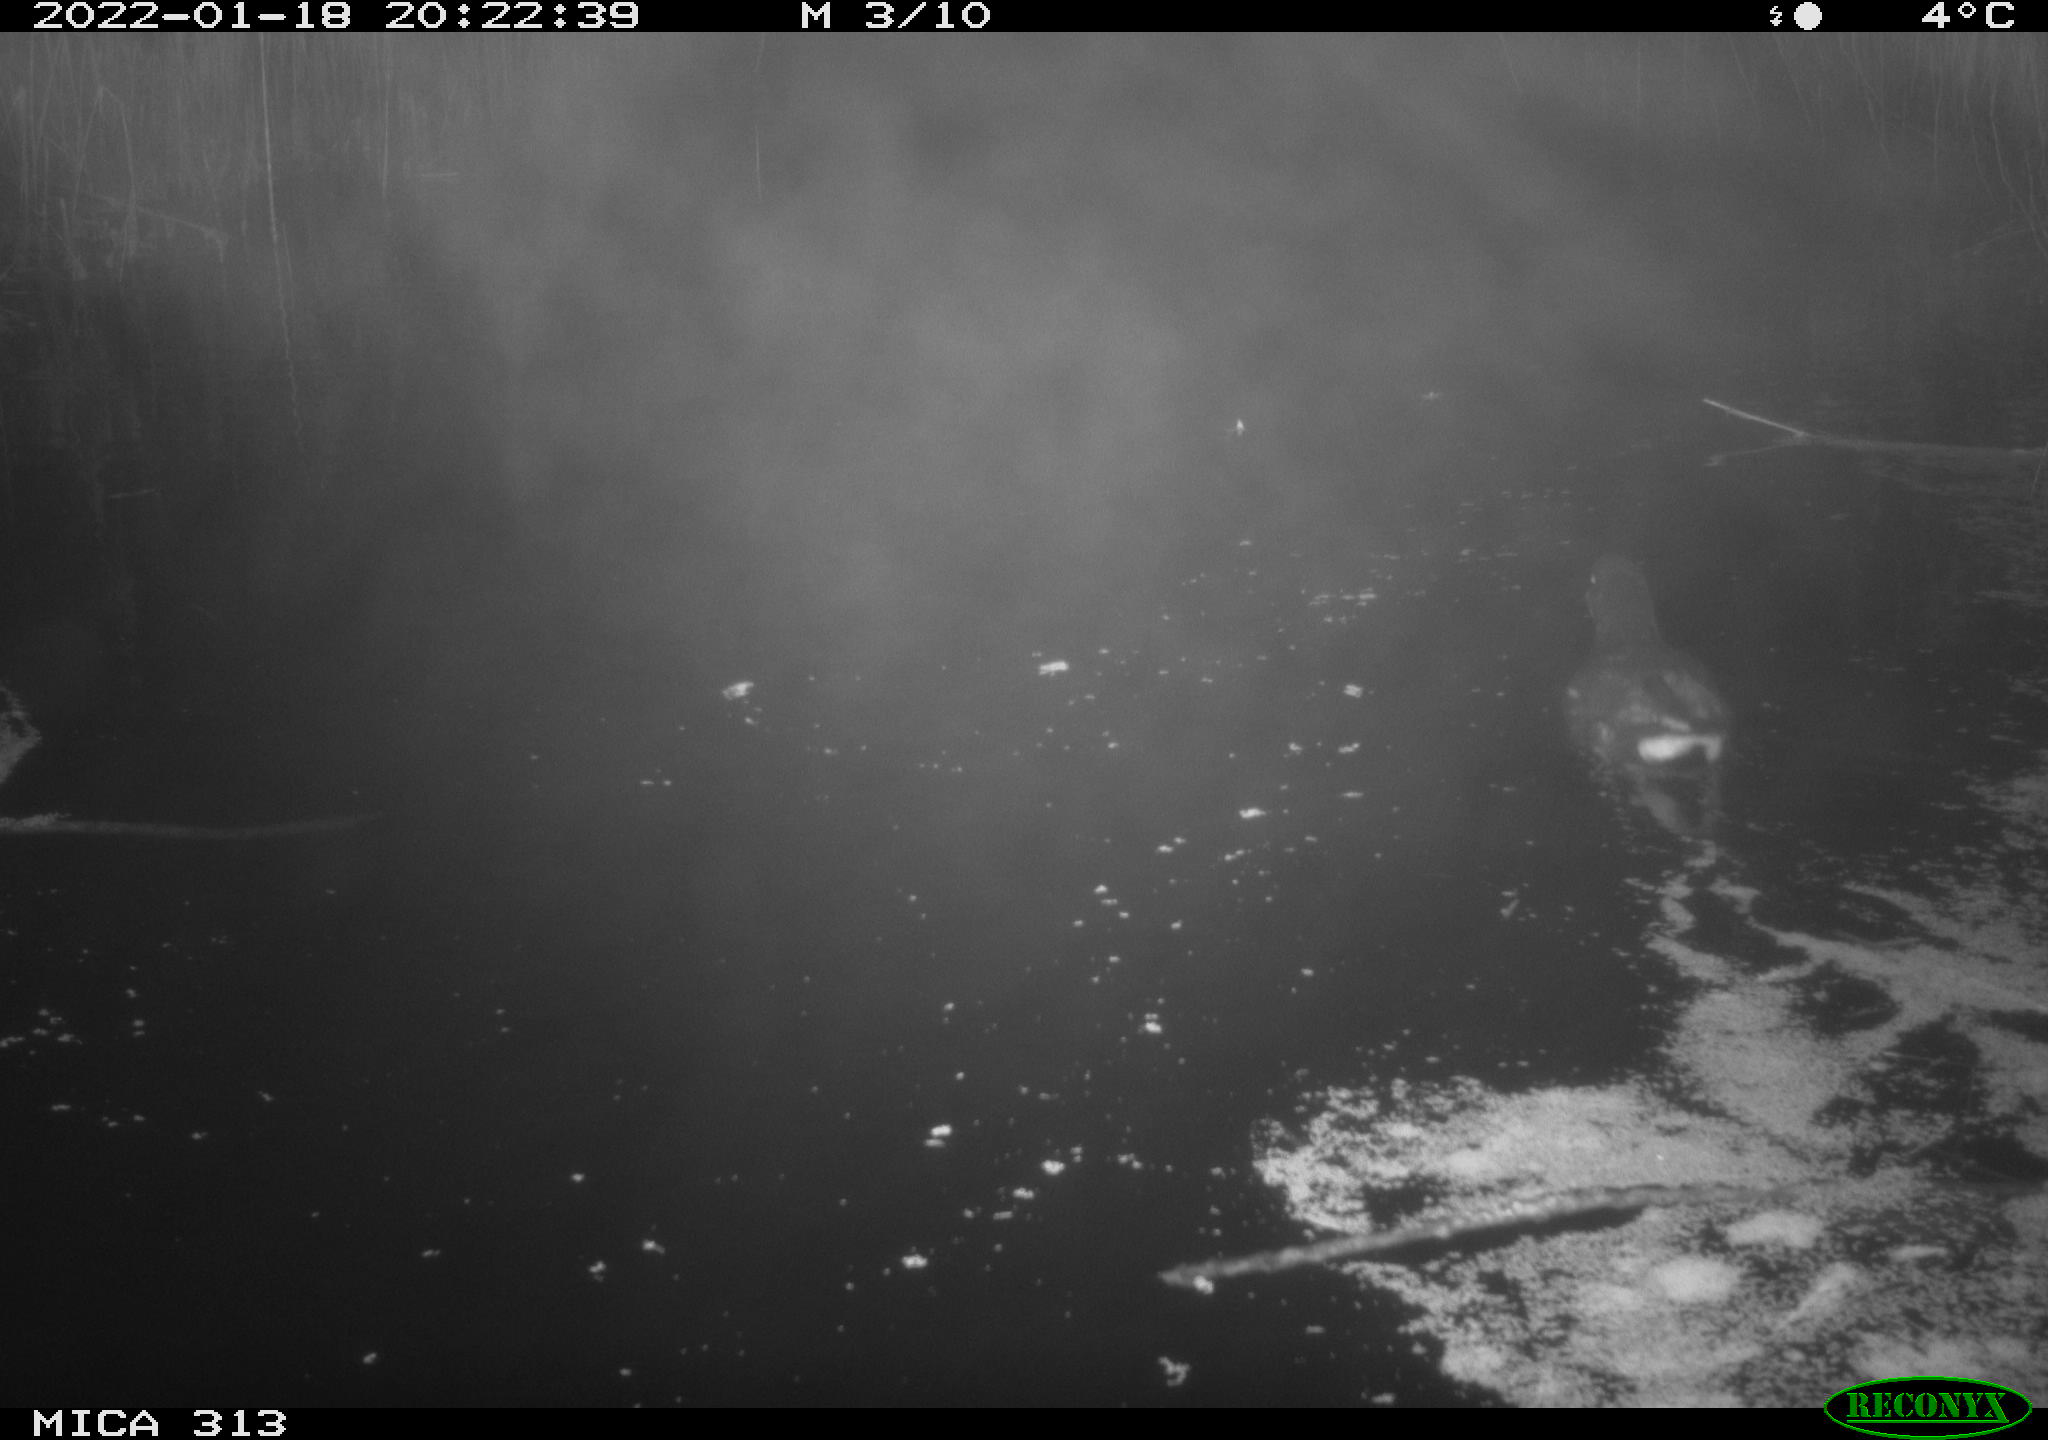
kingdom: Animalia
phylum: Chordata
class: Aves
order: Gruiformes
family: Rallidae
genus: Gallinula
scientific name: Gallinula chloropus
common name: Common moorhen
